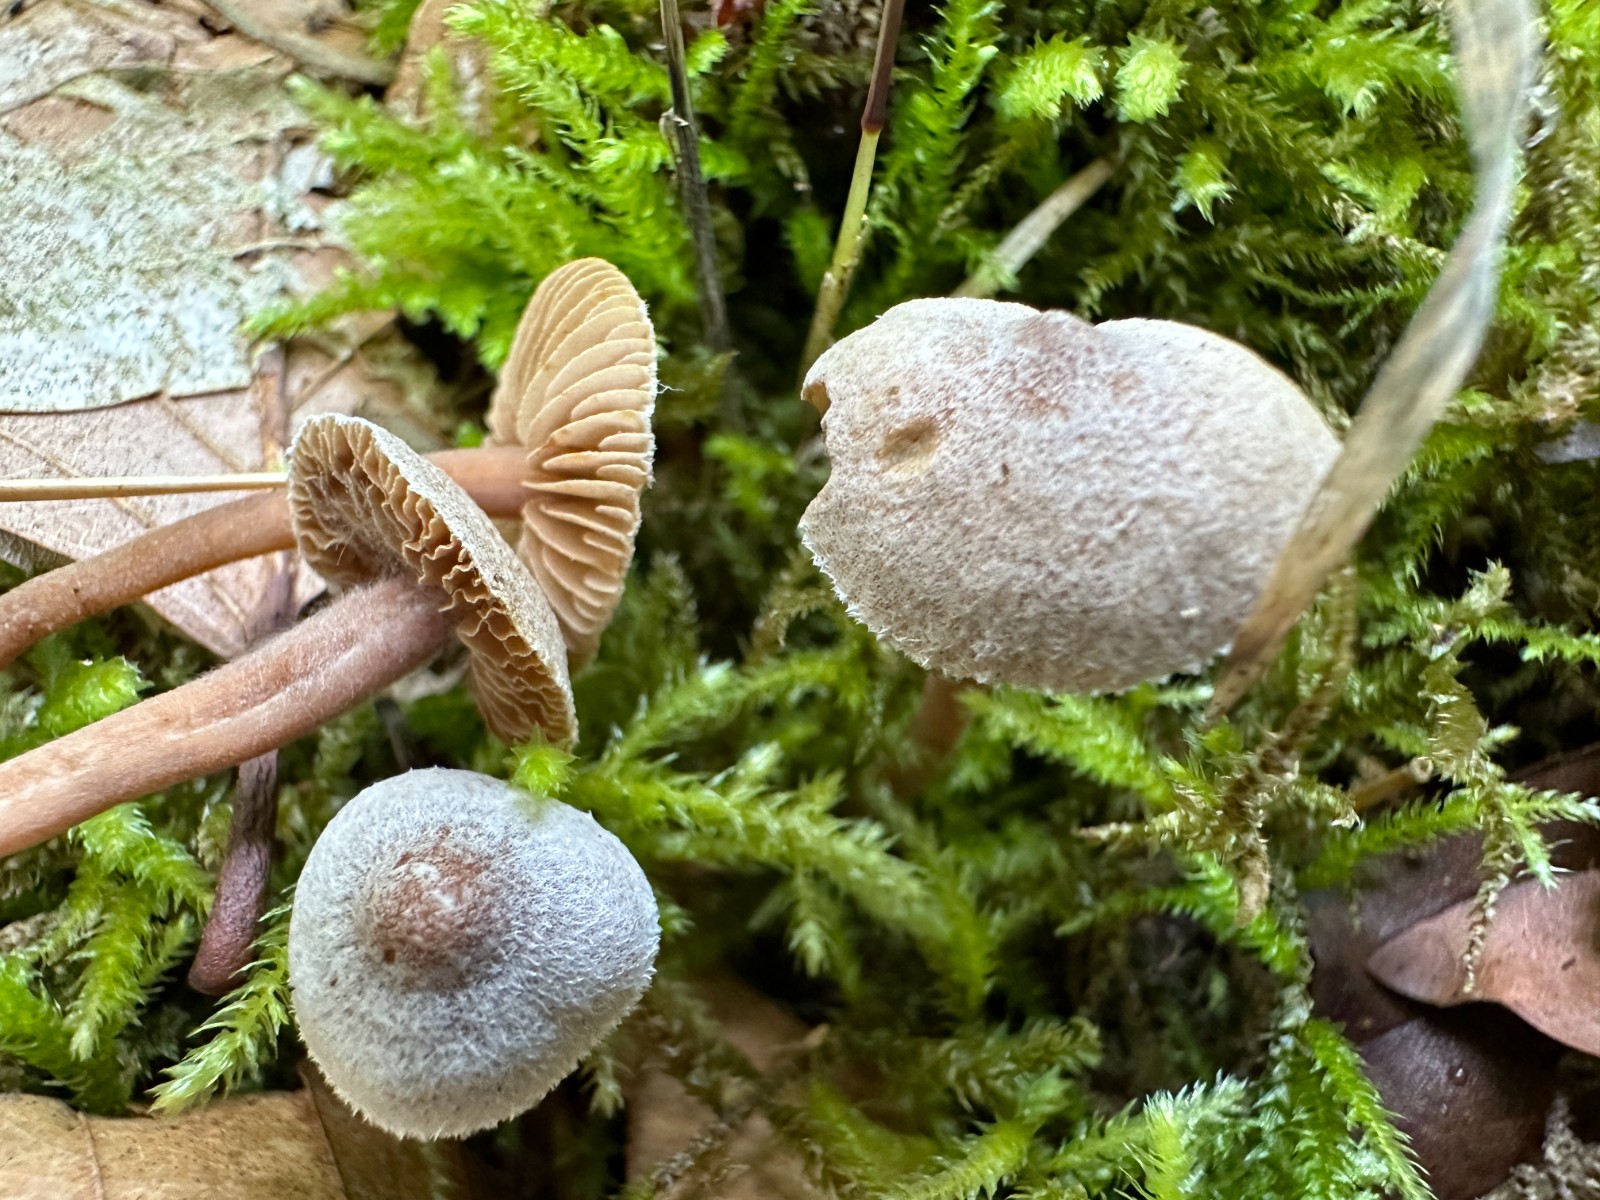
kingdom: Fungi
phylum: Basidiomycota
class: Agaricomycetes
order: Agaricales
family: Inocybaceae
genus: Inocybe
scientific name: Inocybe petiginosa
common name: liden trævlhat
